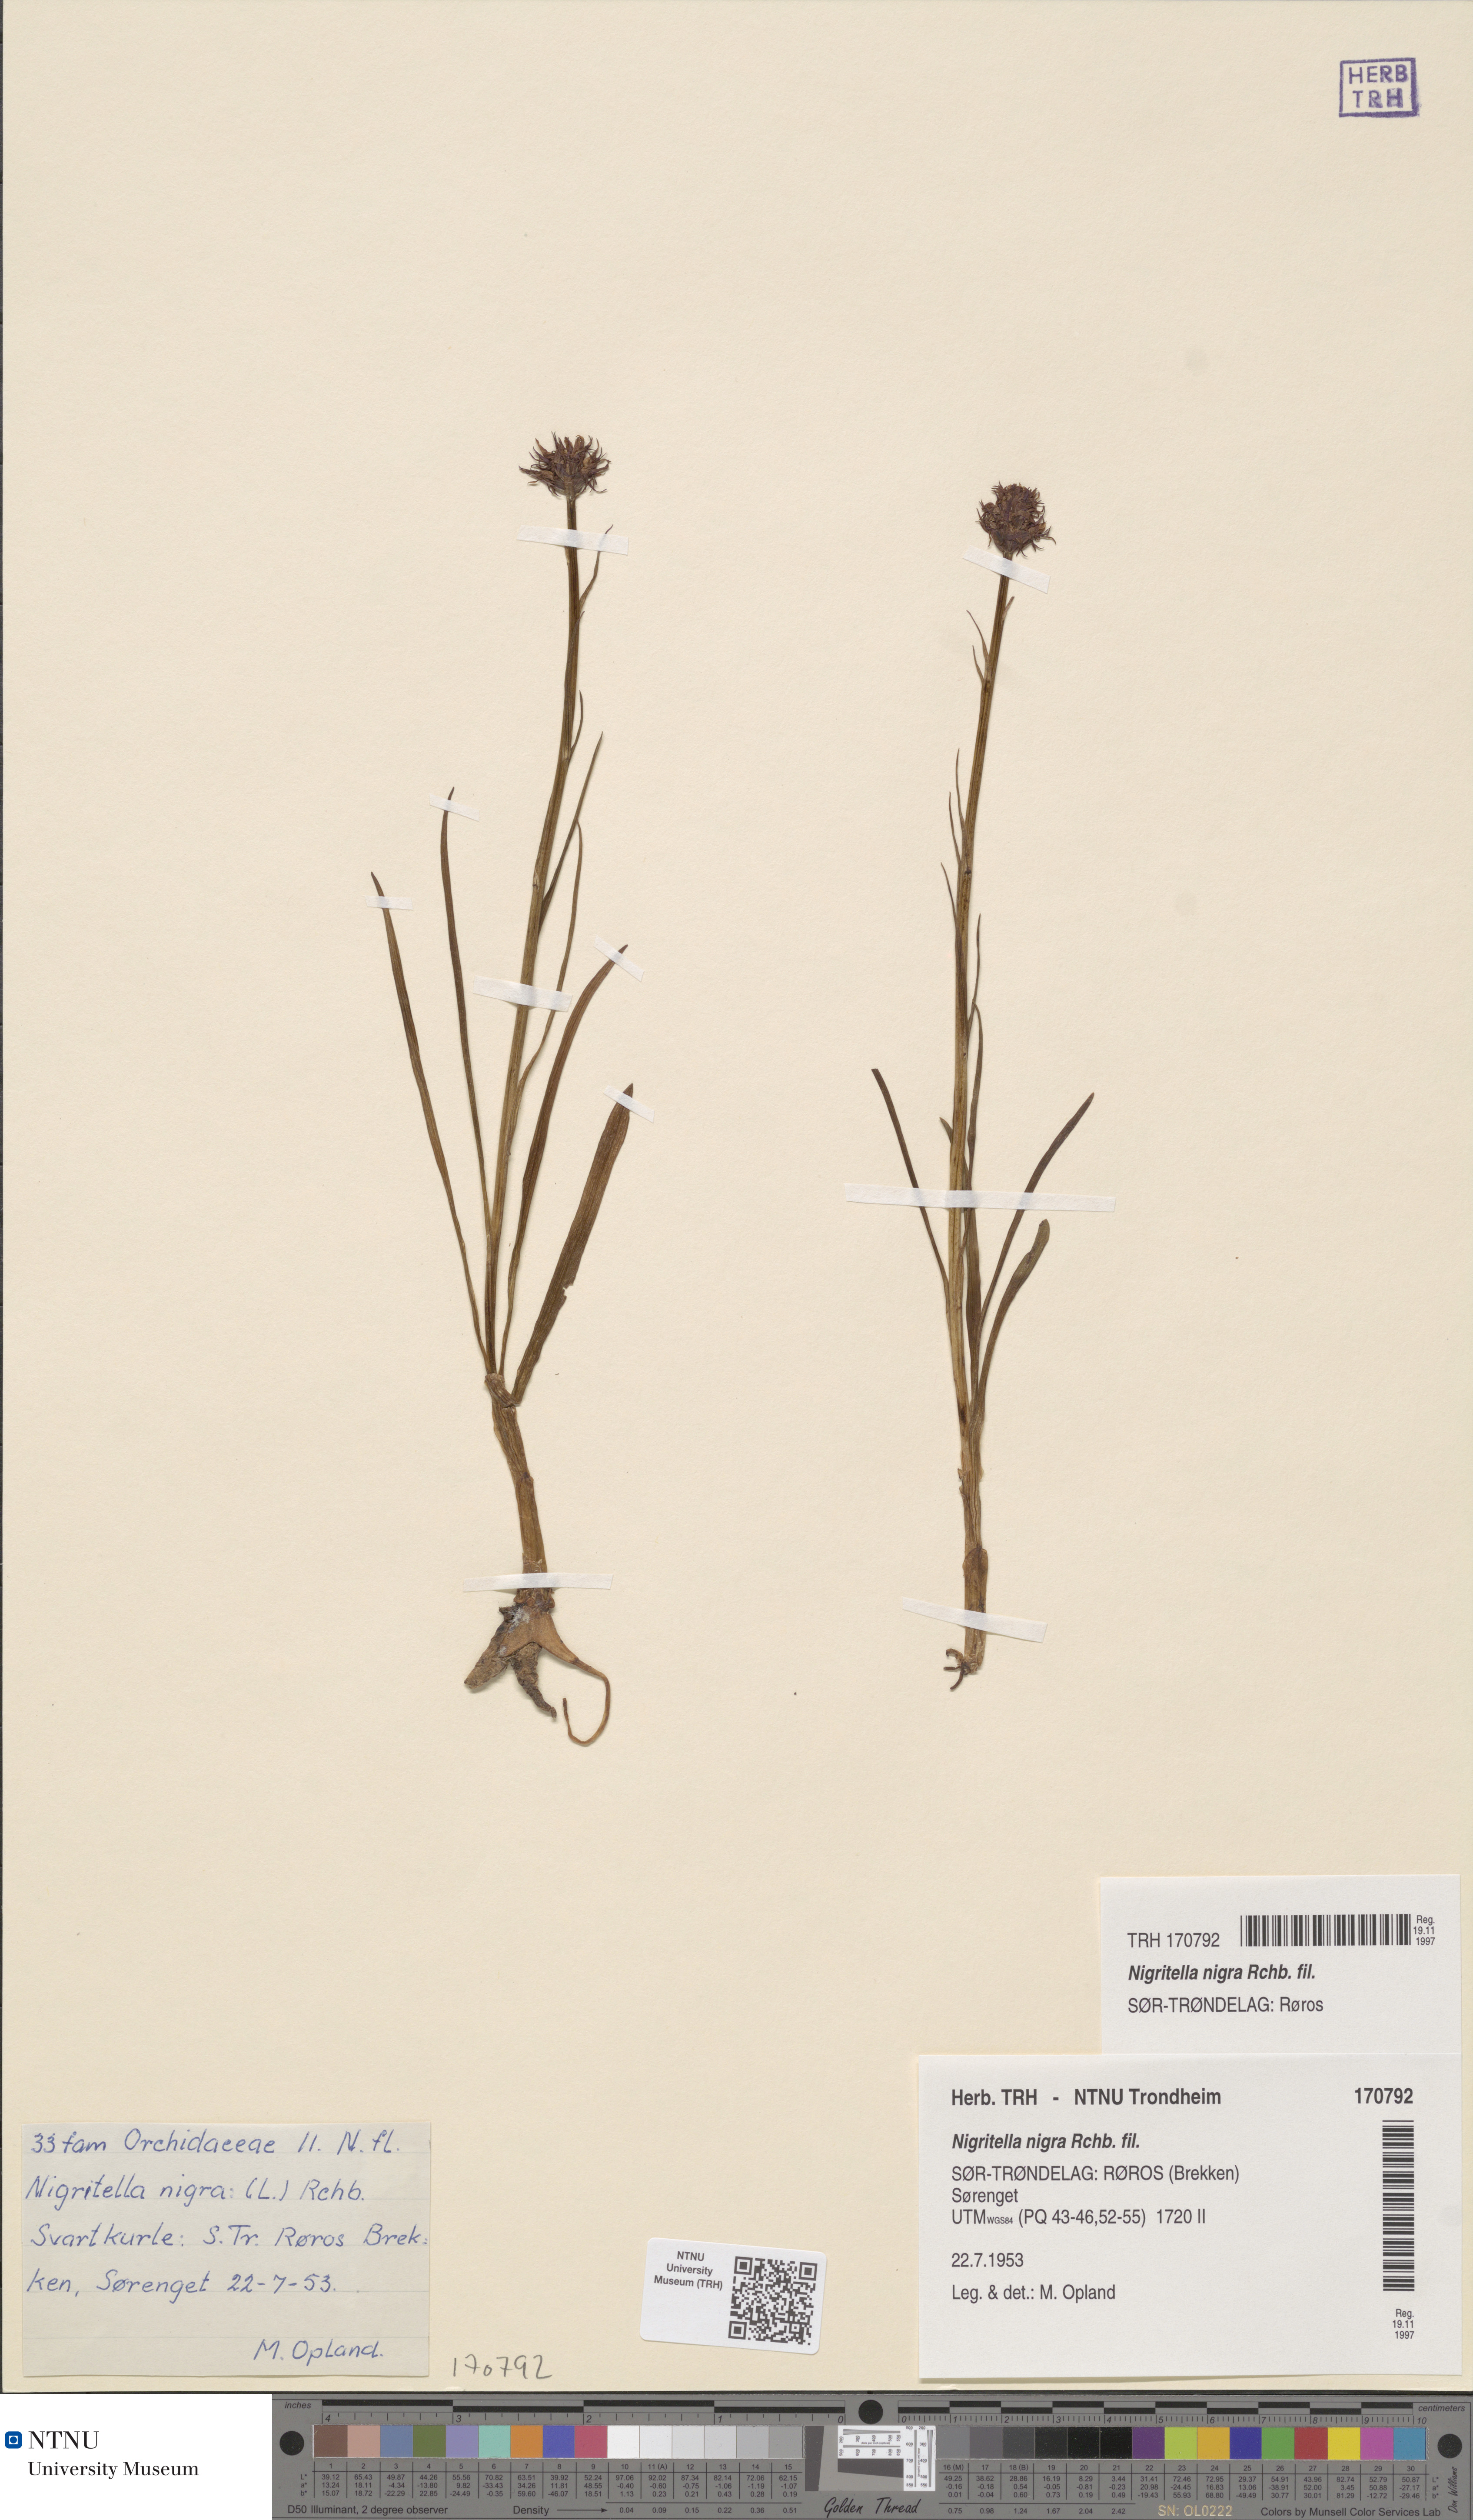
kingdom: Plantae
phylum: Tracheophyta
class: Liliopsida
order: Asparagales
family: Orchidaceae
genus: Gymnadenia
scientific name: Gymnadenia nigra
